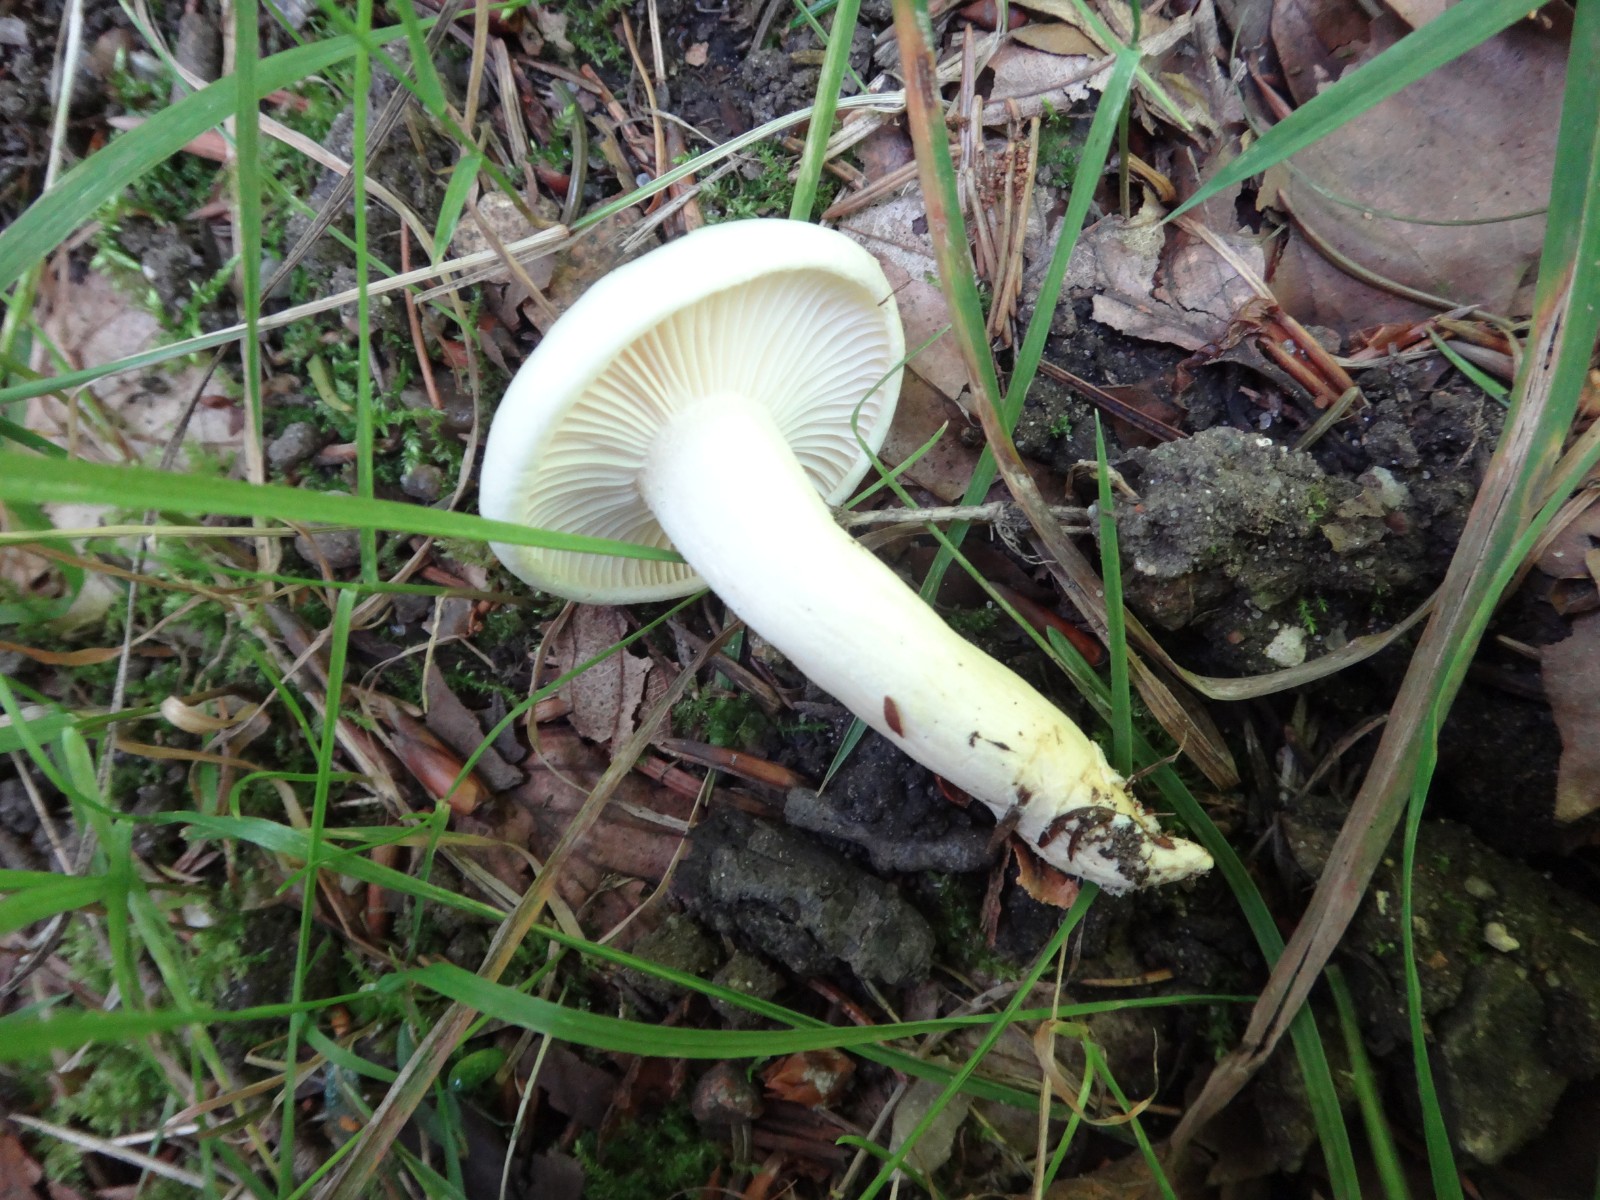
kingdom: Fungi
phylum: Basidiomycota
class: Agaricomycetes
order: Agaricales
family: Hygrophoraceae
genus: Hygrophorus
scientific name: Hygrophorus discoxanthus
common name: ildelugtende sneglehat
